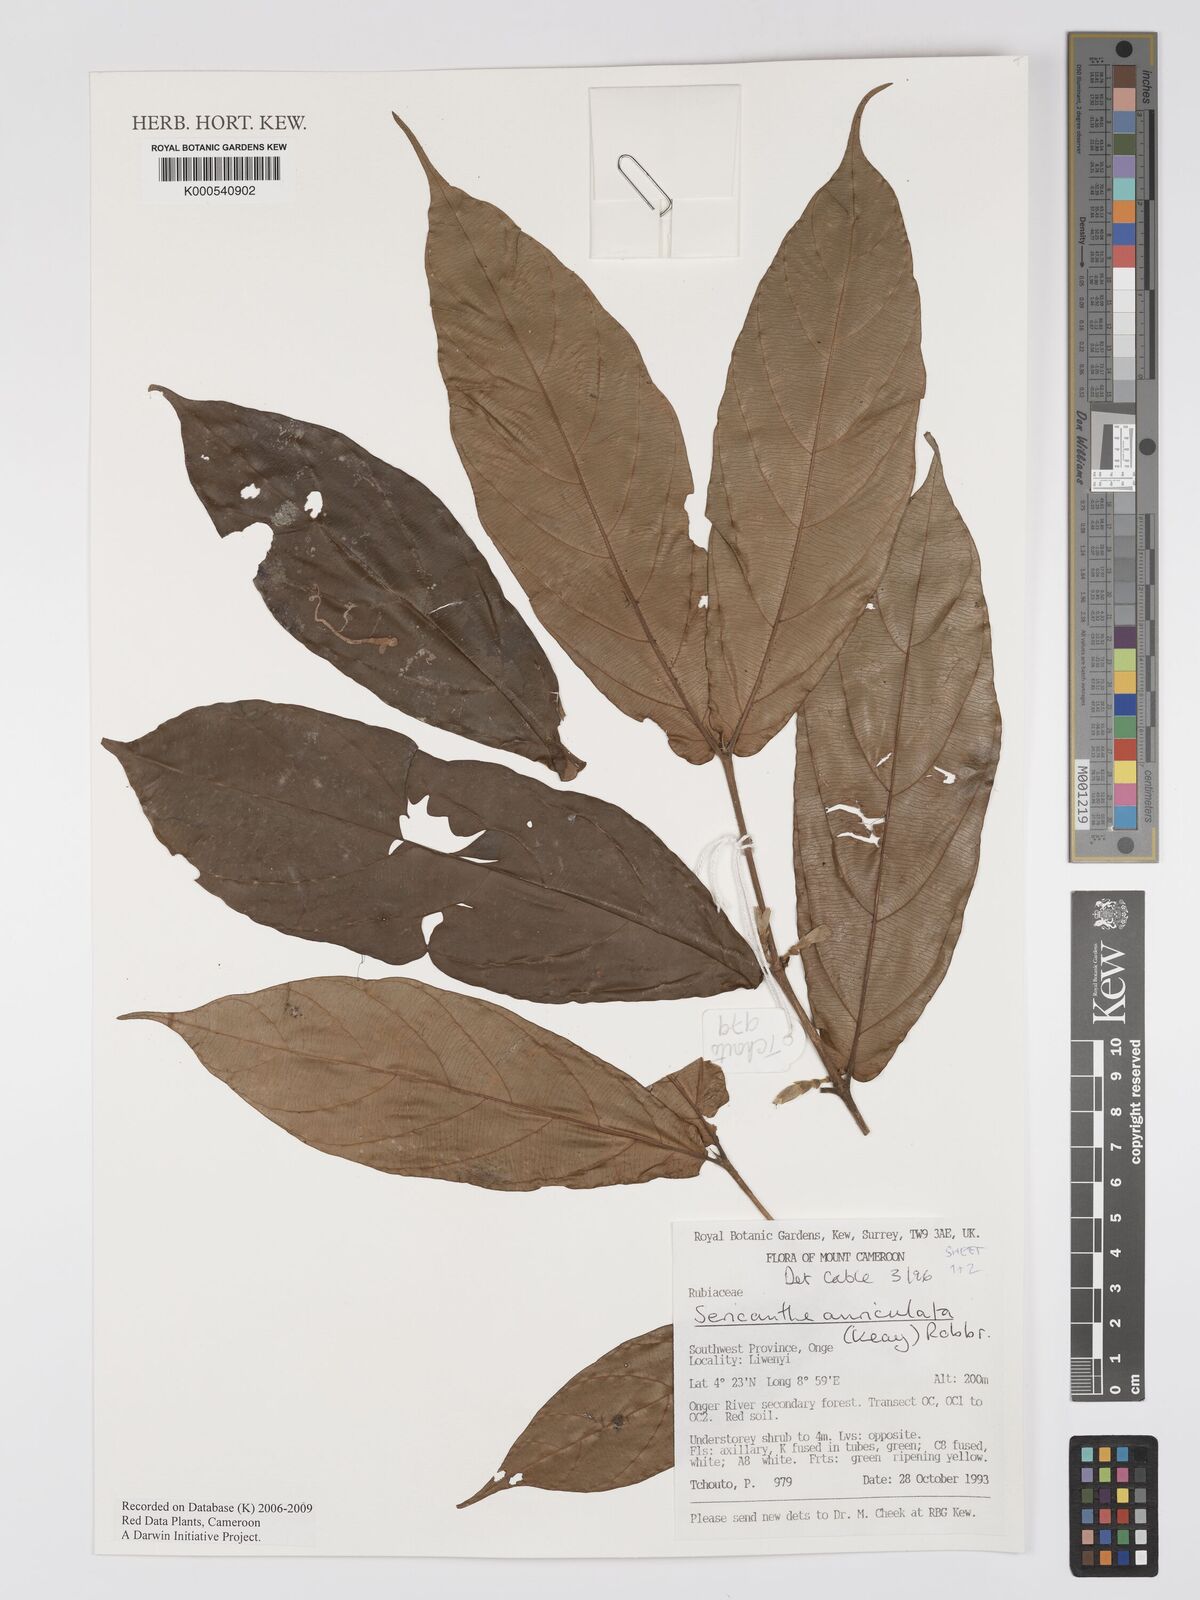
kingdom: Plantae
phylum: Tracheophyta
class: Magnoliopsida
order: Gentianales
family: Rubiaceae
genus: Sericanthe
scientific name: Sericanthe auriculata
